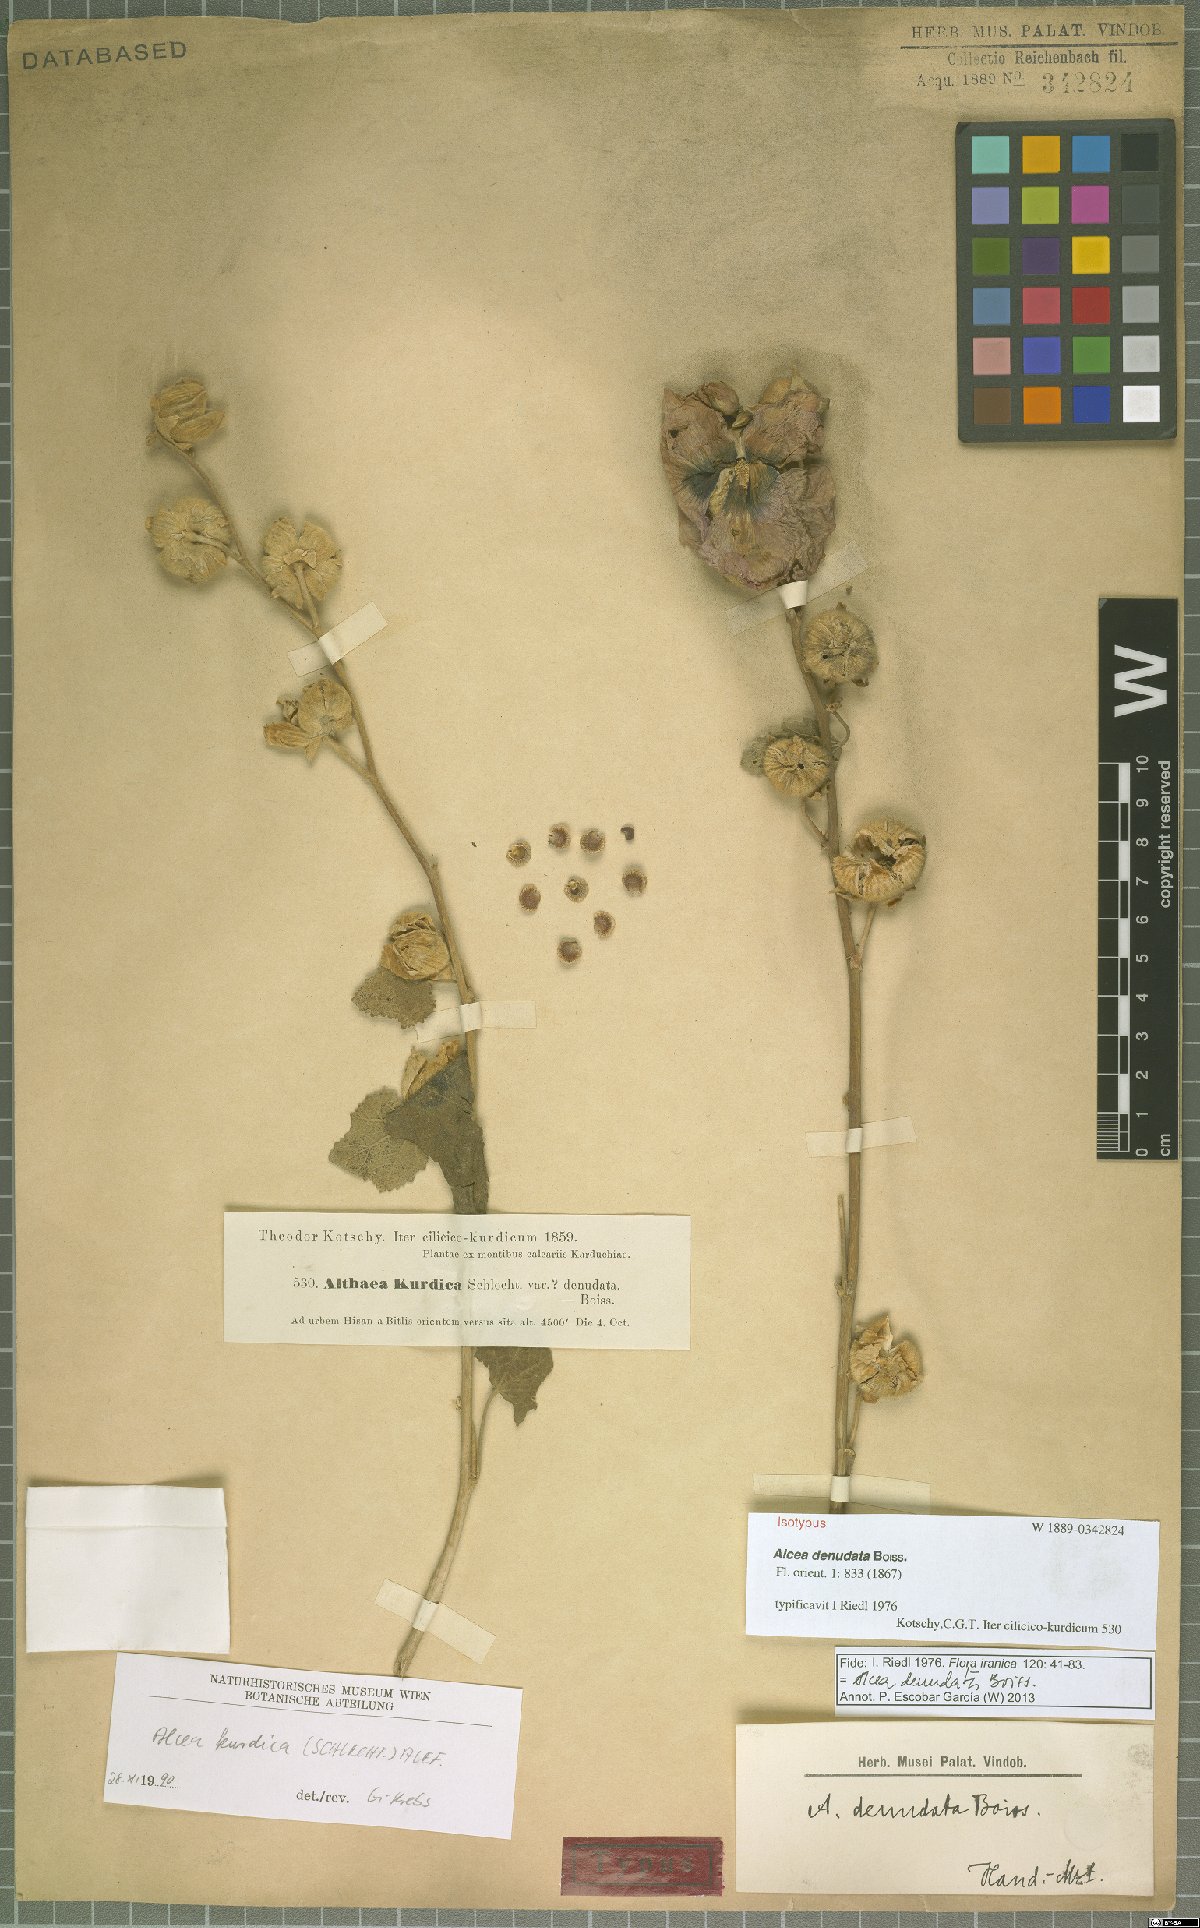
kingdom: Plantae
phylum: Tracheophyta
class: Magnoliopsida
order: Malvales
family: Malvaceae
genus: Alcea
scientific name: Alcea kurdica
